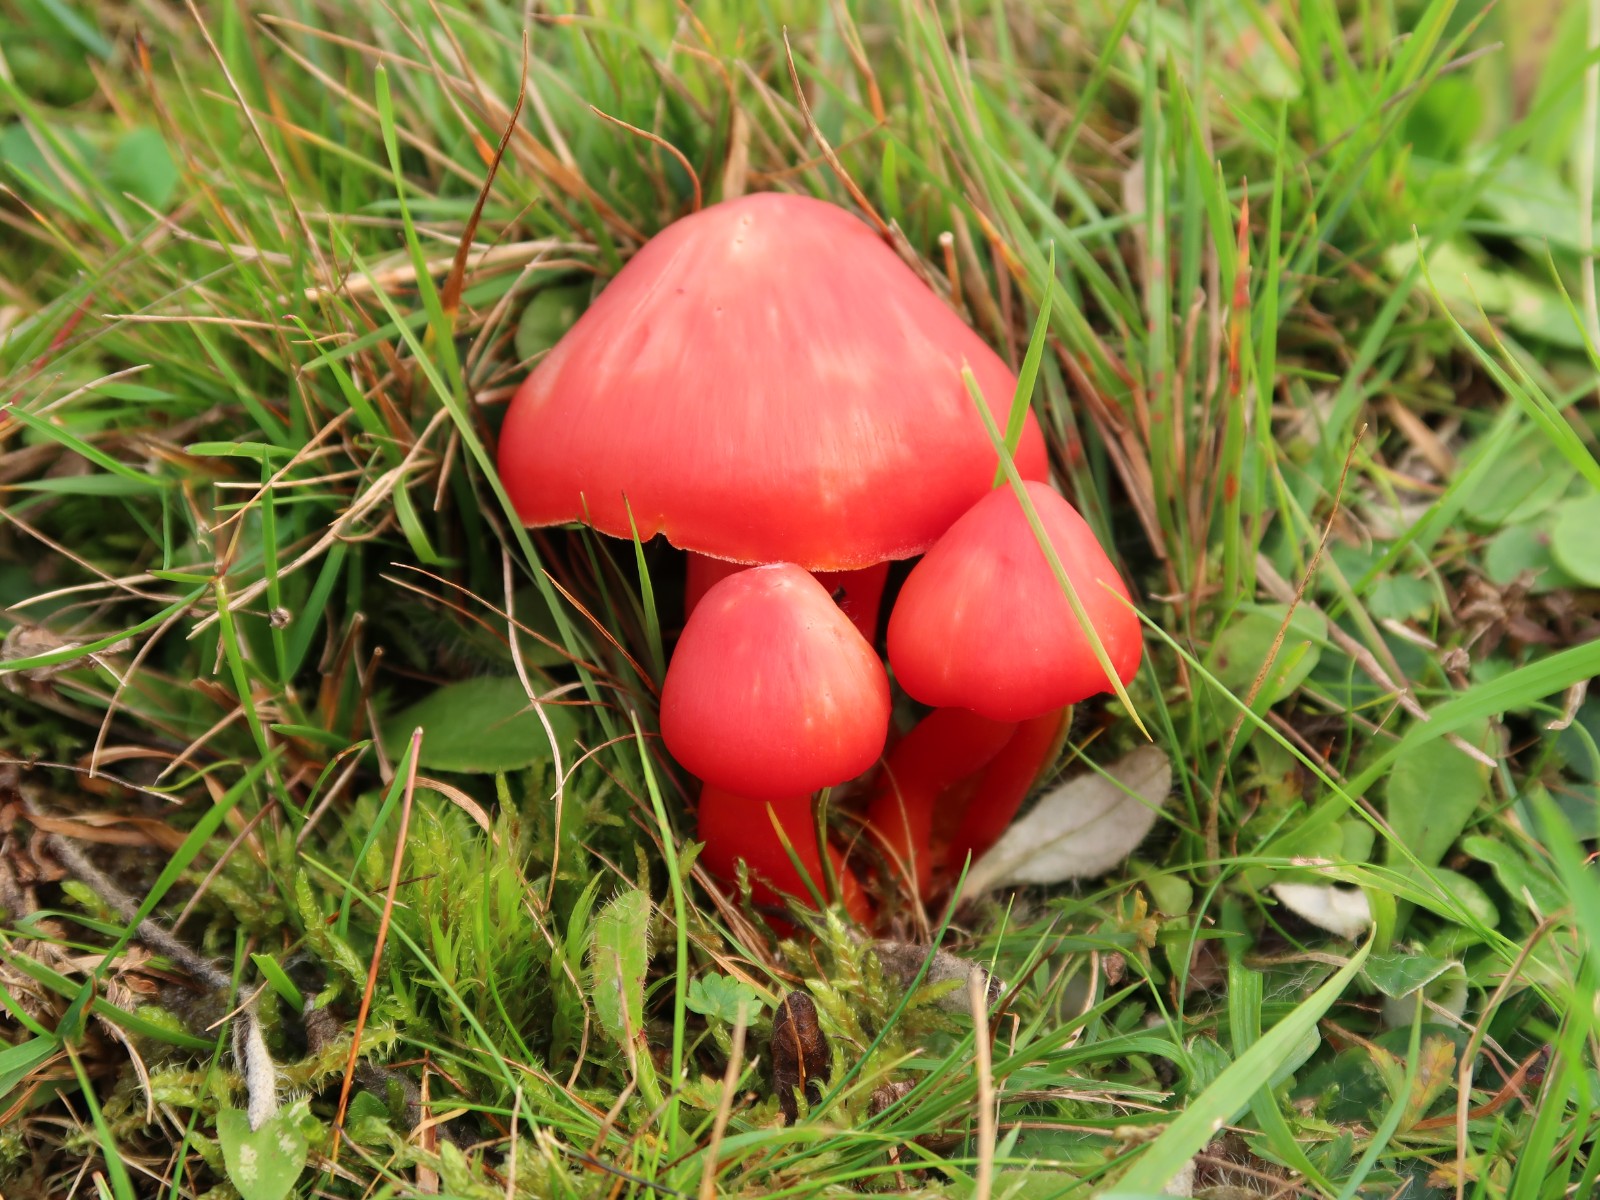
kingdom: Fungi
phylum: Basidiomycota
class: Agaricomycetes
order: Agaricales
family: Hygrophoraceae
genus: Hygrocybe
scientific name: Hygrocybe splendidissima
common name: knaldrød vokshat
